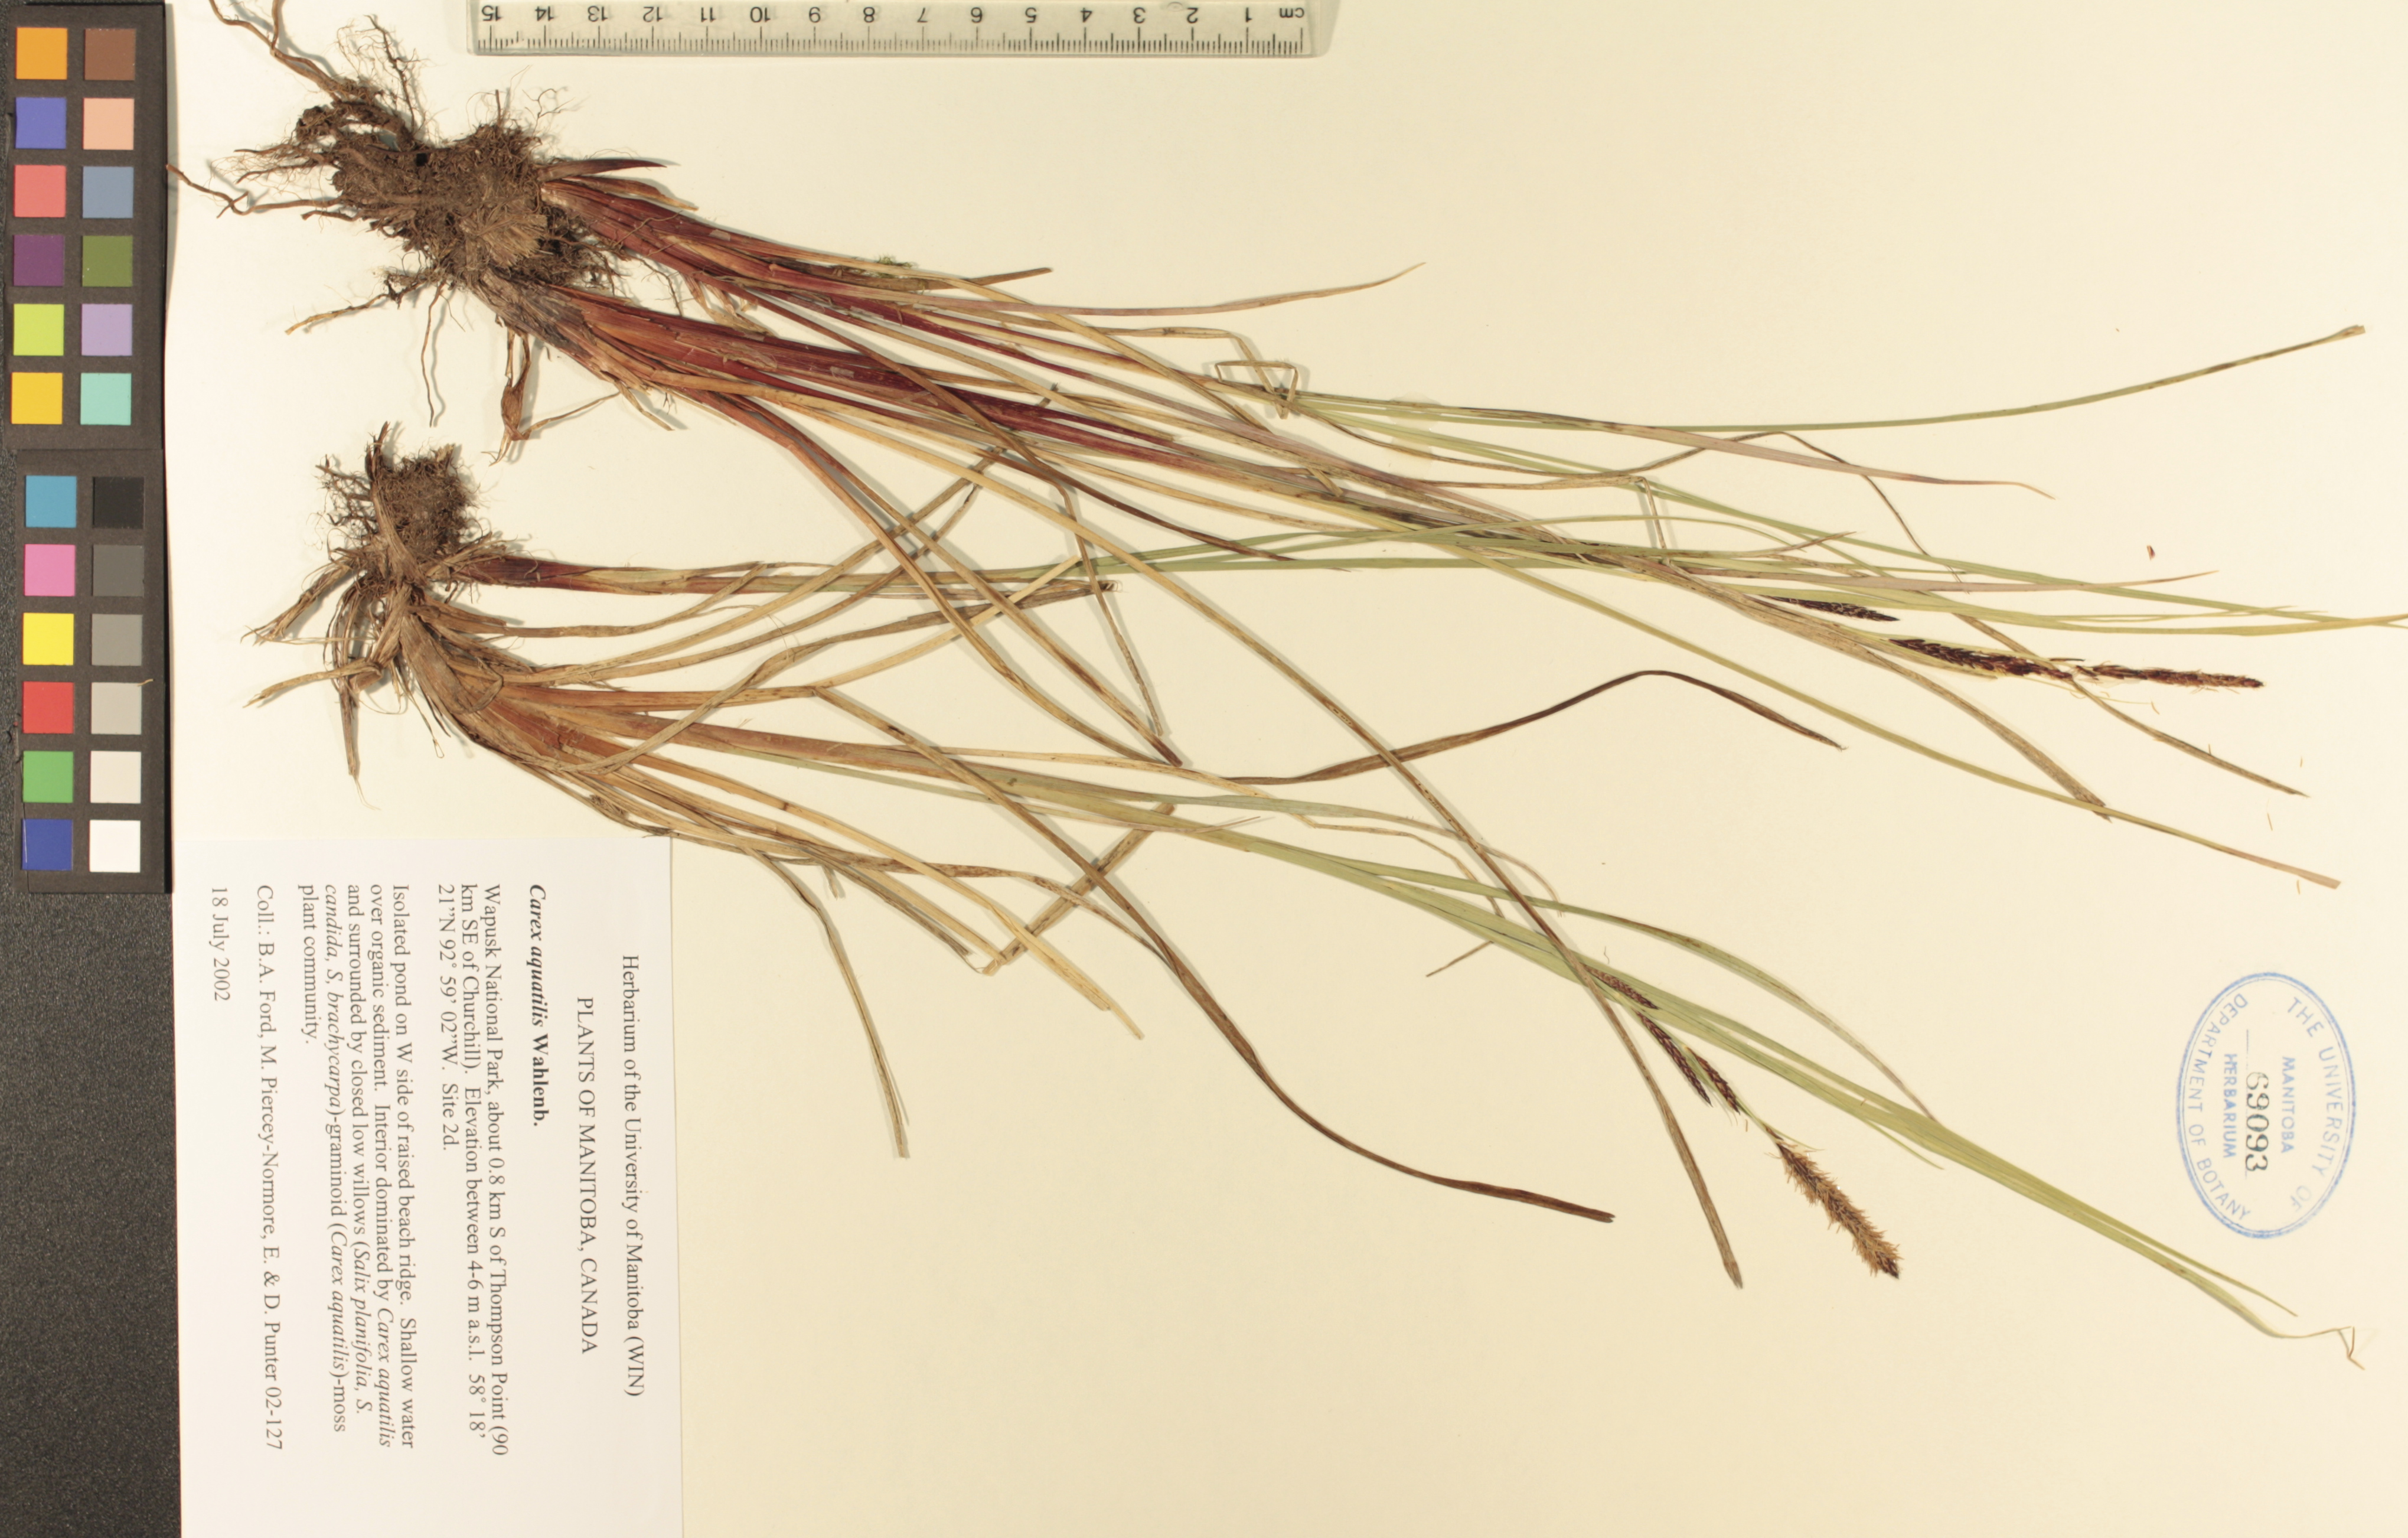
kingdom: Plantae
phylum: Tracheophyta
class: Liliopsida
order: Poales
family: Cyperaceae
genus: Carex
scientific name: Carex aquatilis
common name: Water sedge
